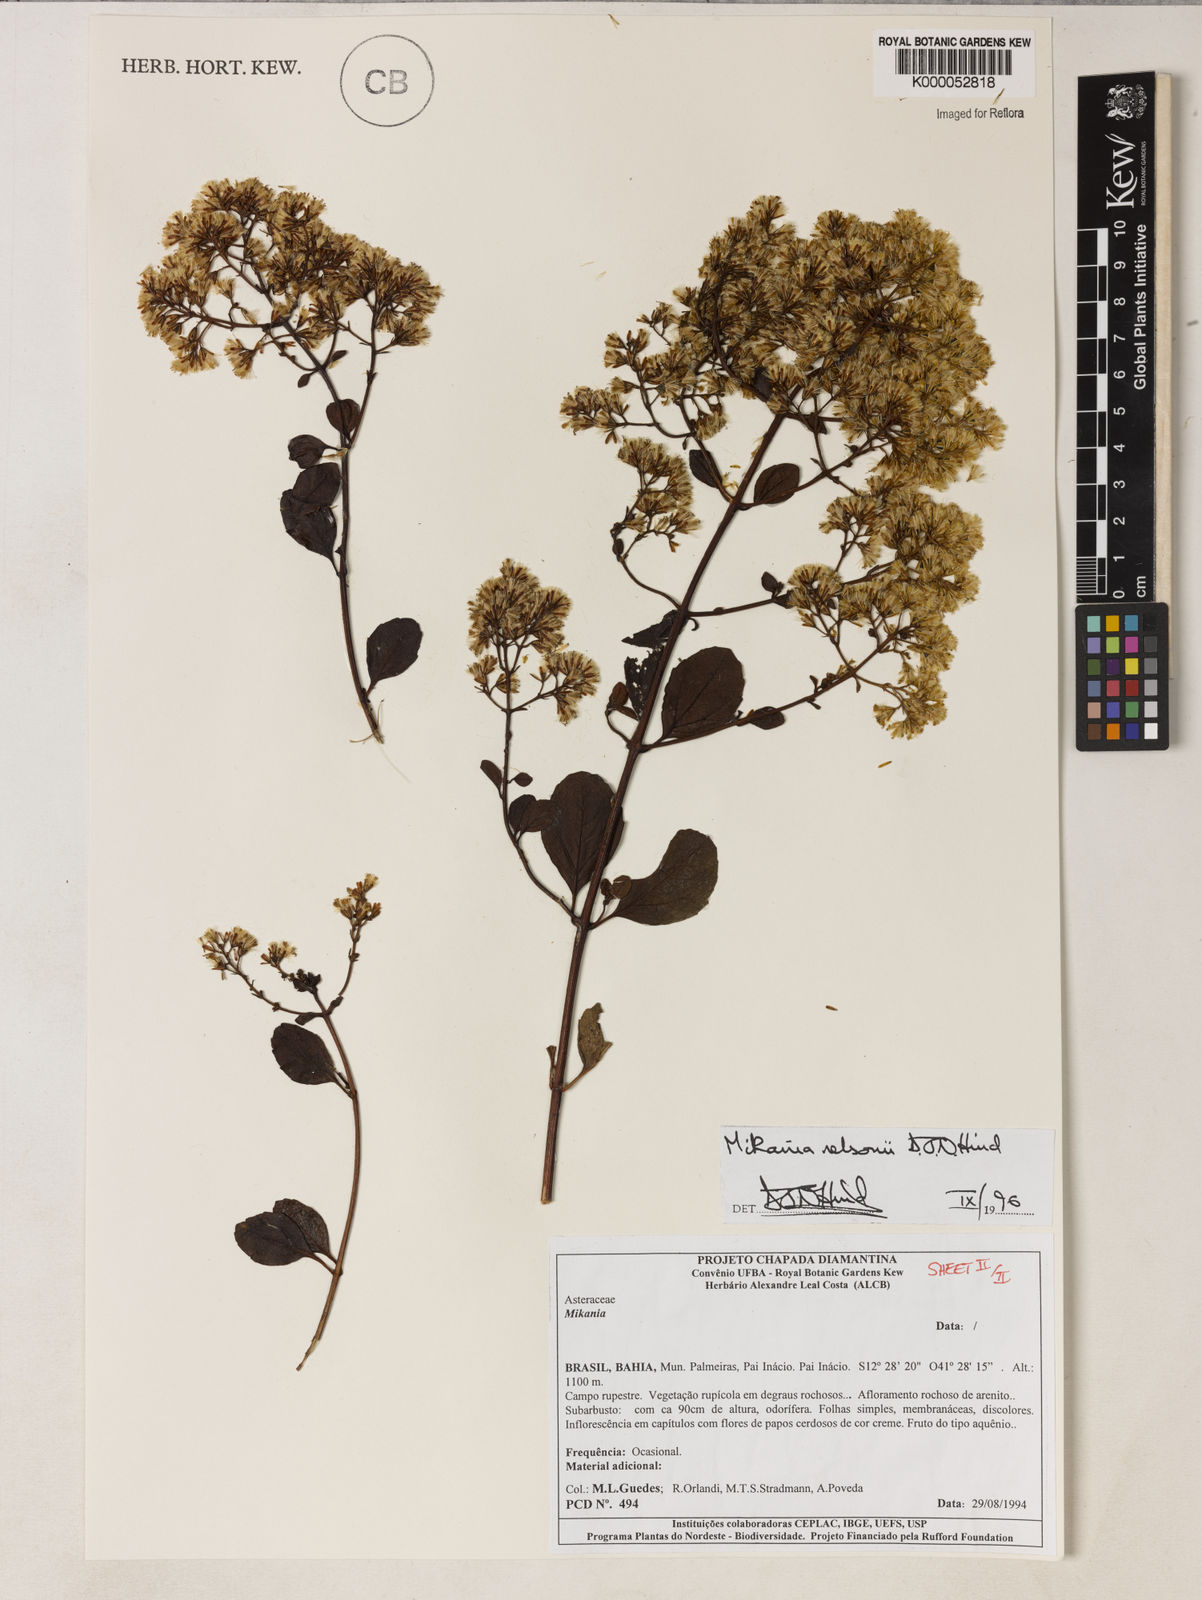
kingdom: Plantae
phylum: Tracheophyta
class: Magnoliopsida
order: Asterales
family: Asteraceae
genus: Mikania
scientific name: Mikania nelsonii
